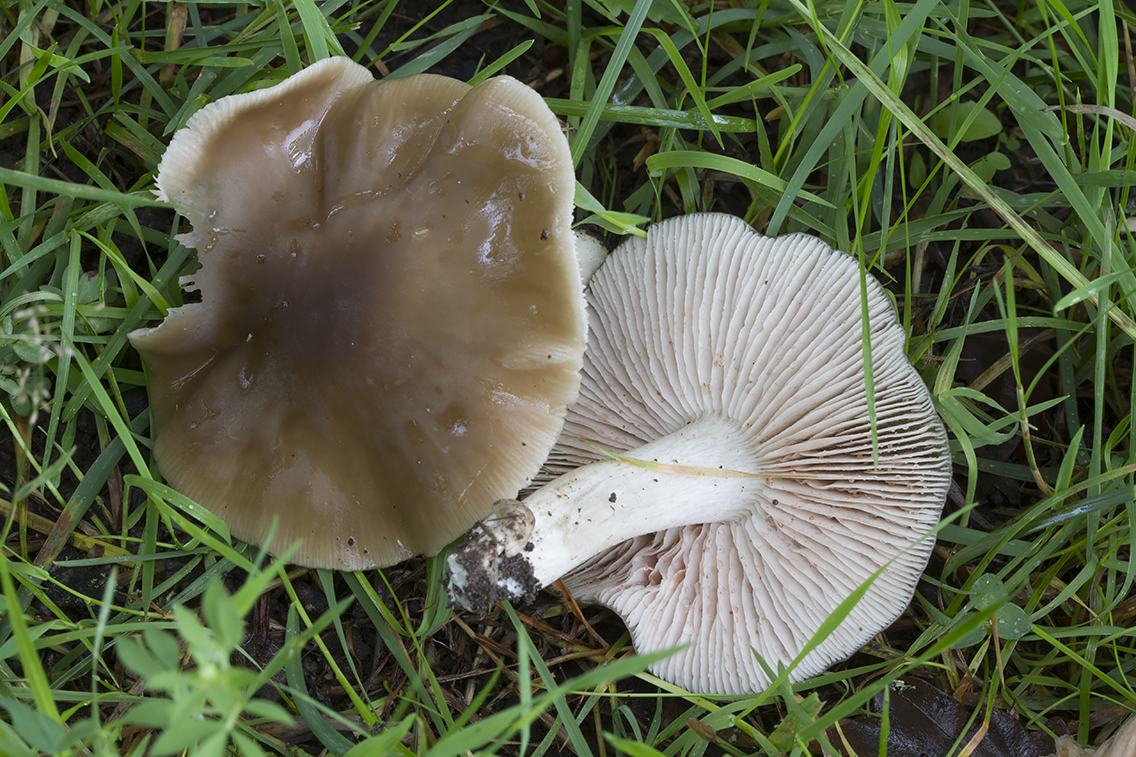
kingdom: Fungi
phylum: Basidiomycota
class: Agaricomycetes
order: Agaricales
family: Entolomataceae
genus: Entoloma
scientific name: Entoloma lividoalbum
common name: lysstokket rødblad
